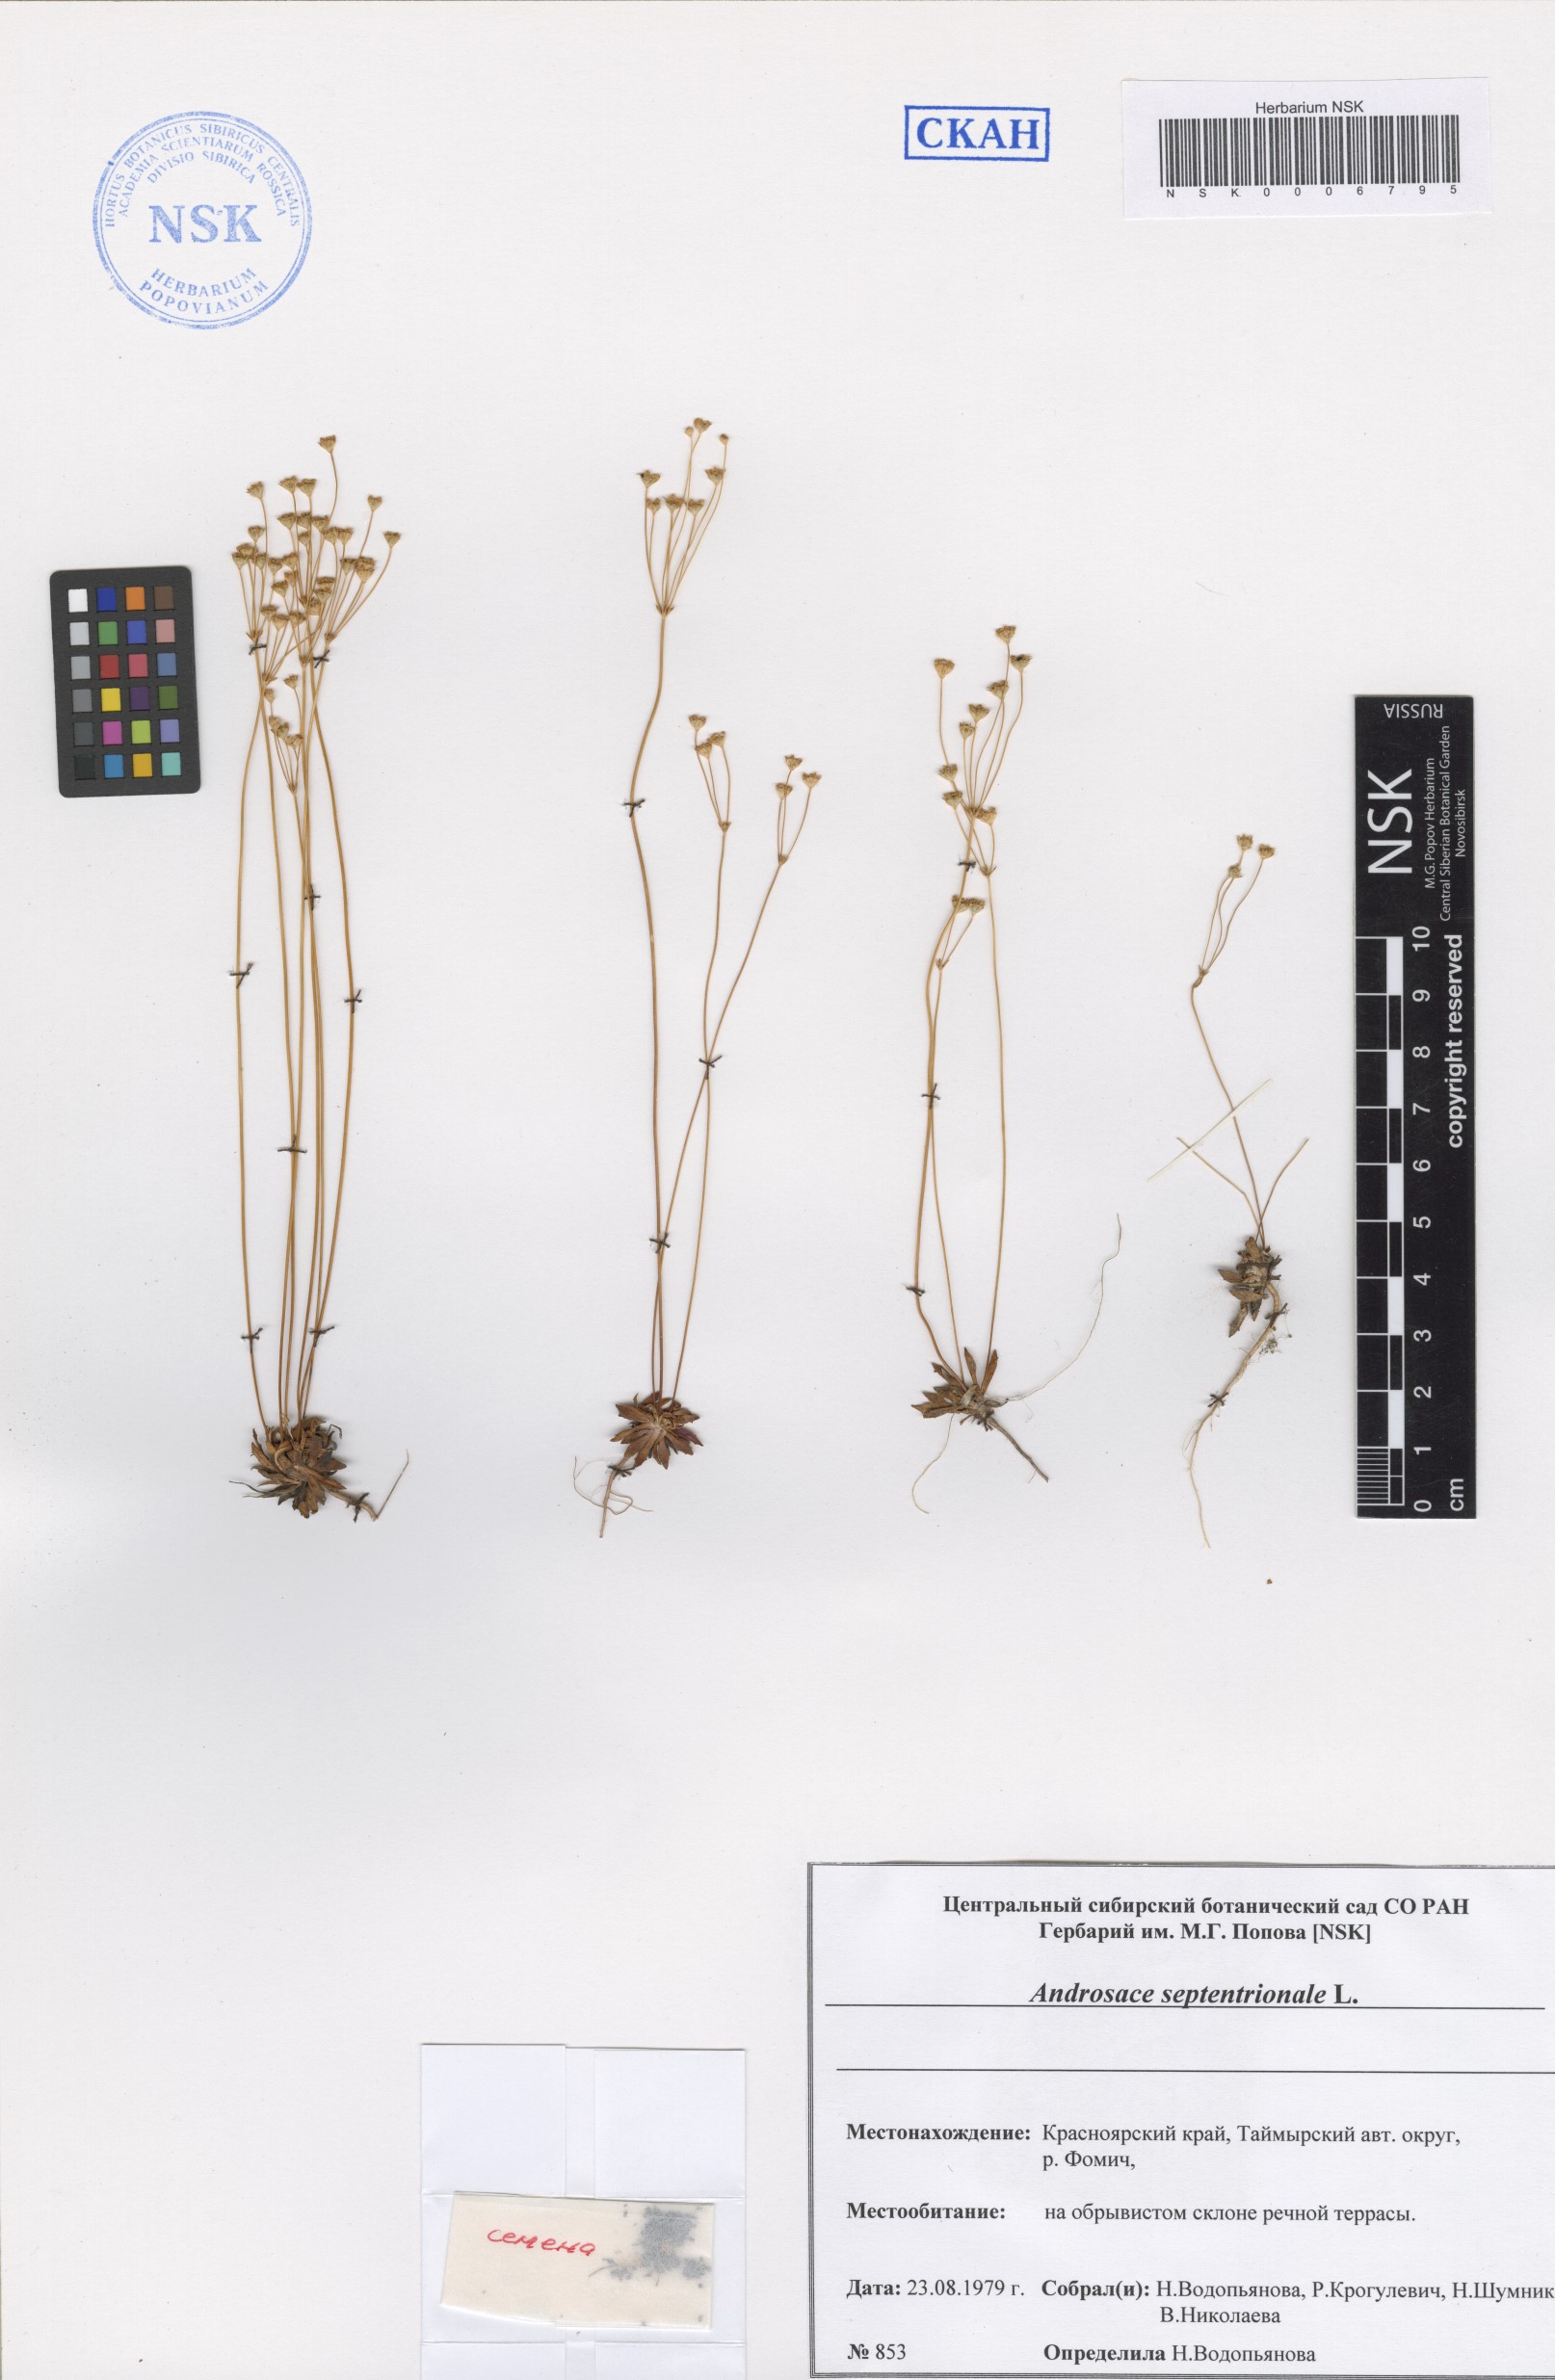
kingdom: Plantae
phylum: Tracheophyta
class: Magnoliopsida
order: Ericales
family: Primulaceae
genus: Androsace
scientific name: Androsace septentrionalis
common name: Hairy northern fairy-candelabra
